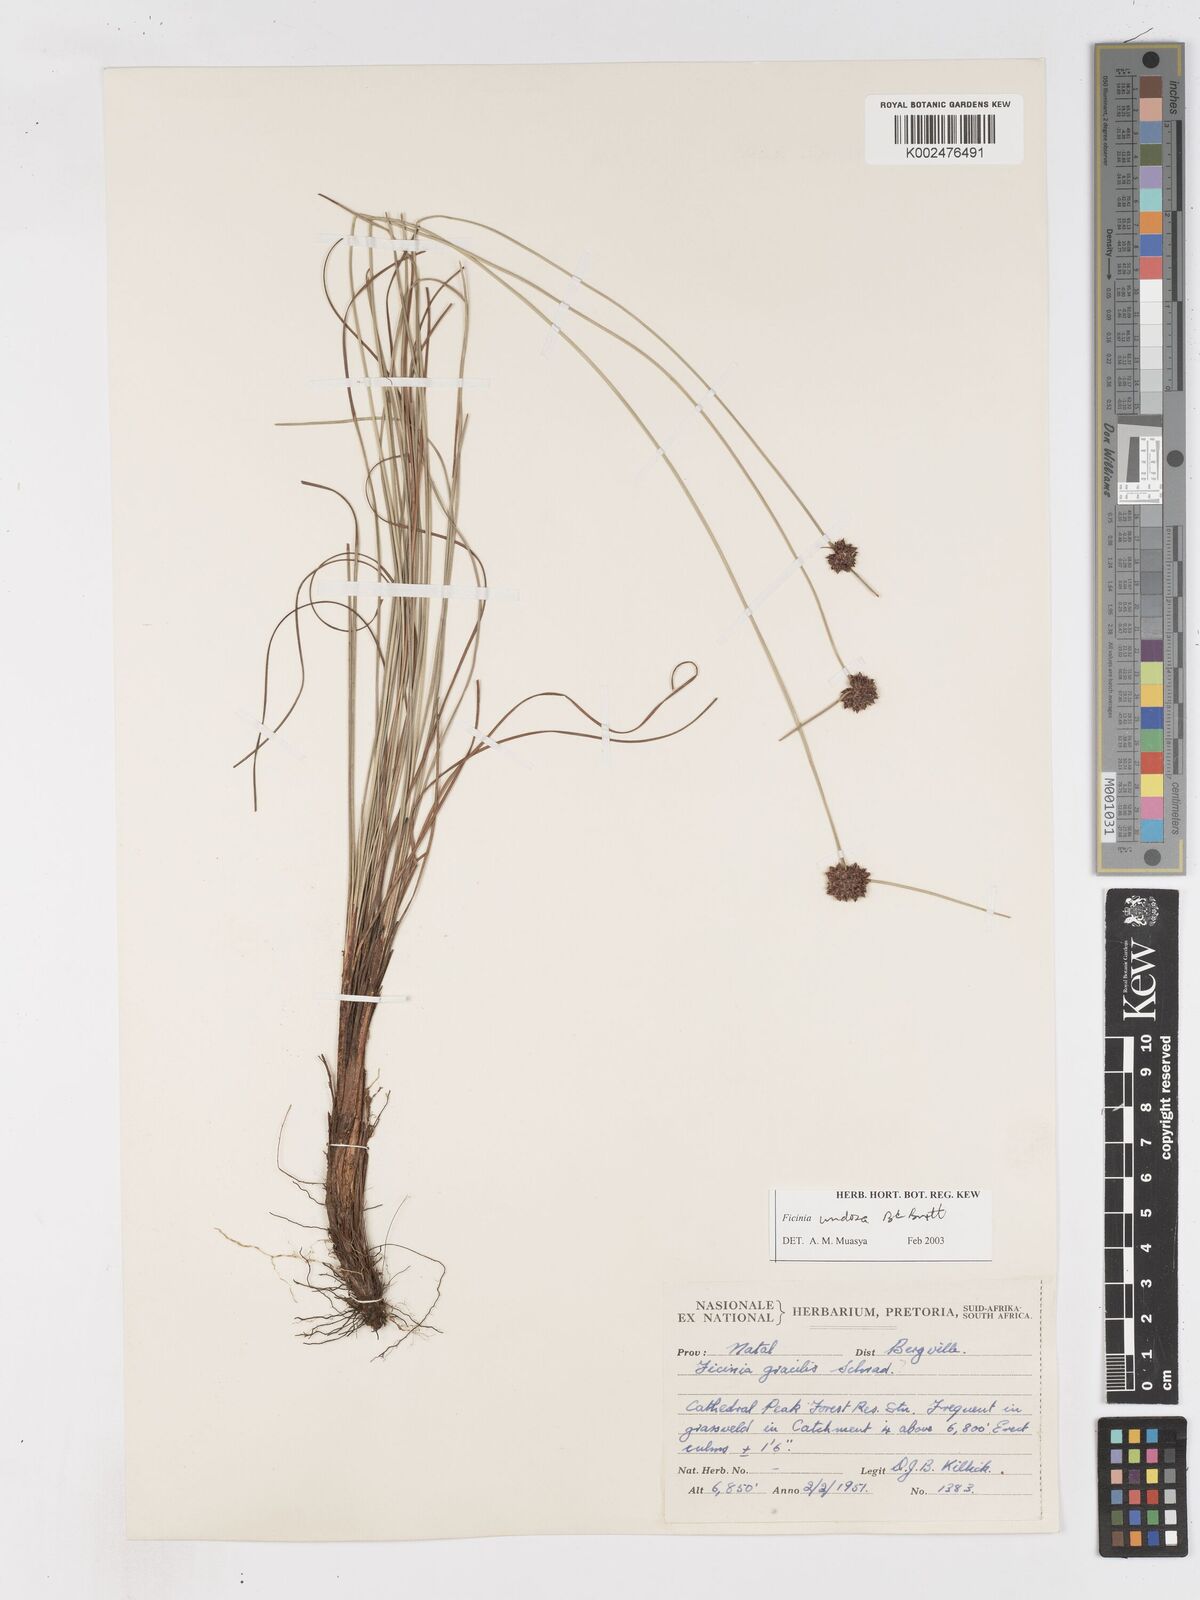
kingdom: Plantae
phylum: Tracheophyta
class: Liliopsida
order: Poales
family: Cyperaceae
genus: Ficinia
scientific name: Ficinia undosa
